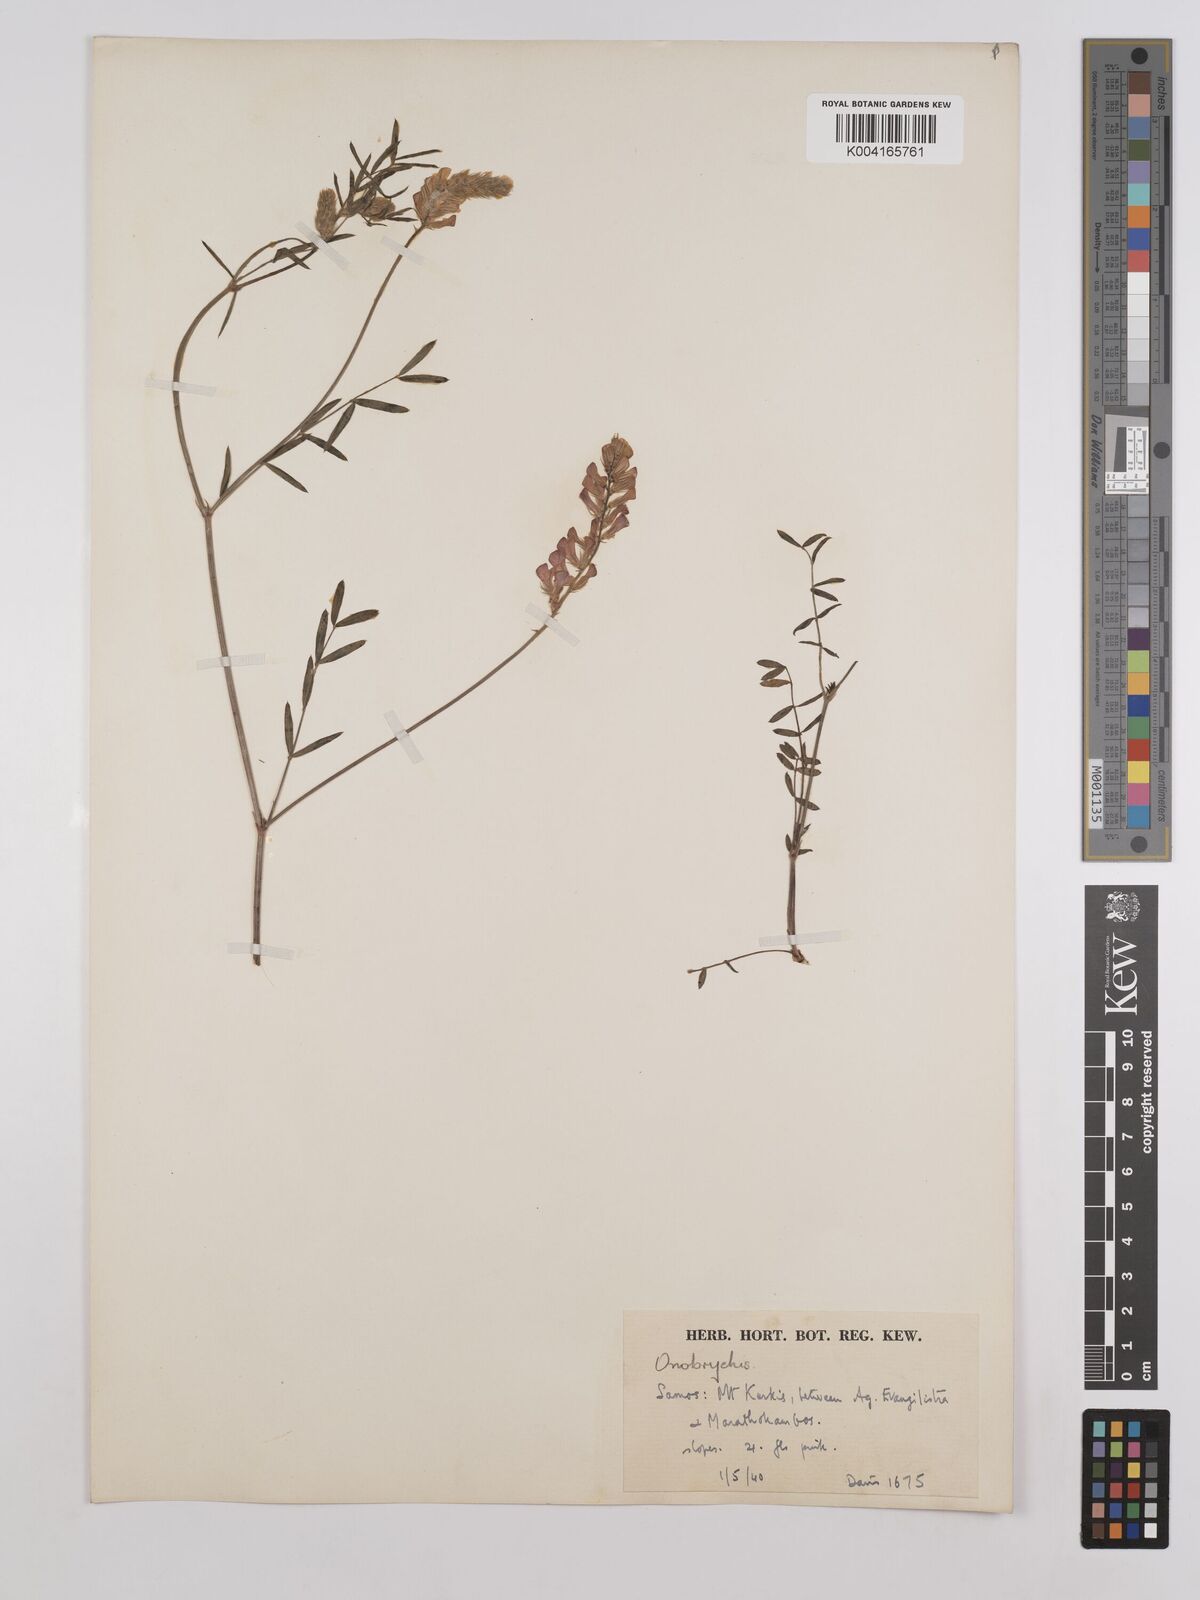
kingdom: Plantae
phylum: Tracheophyta
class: Magnoliopsida
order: Fabales
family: Fabaceae
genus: Onobrychis
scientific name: Onobrychis arenaria
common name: Sand esparcet
